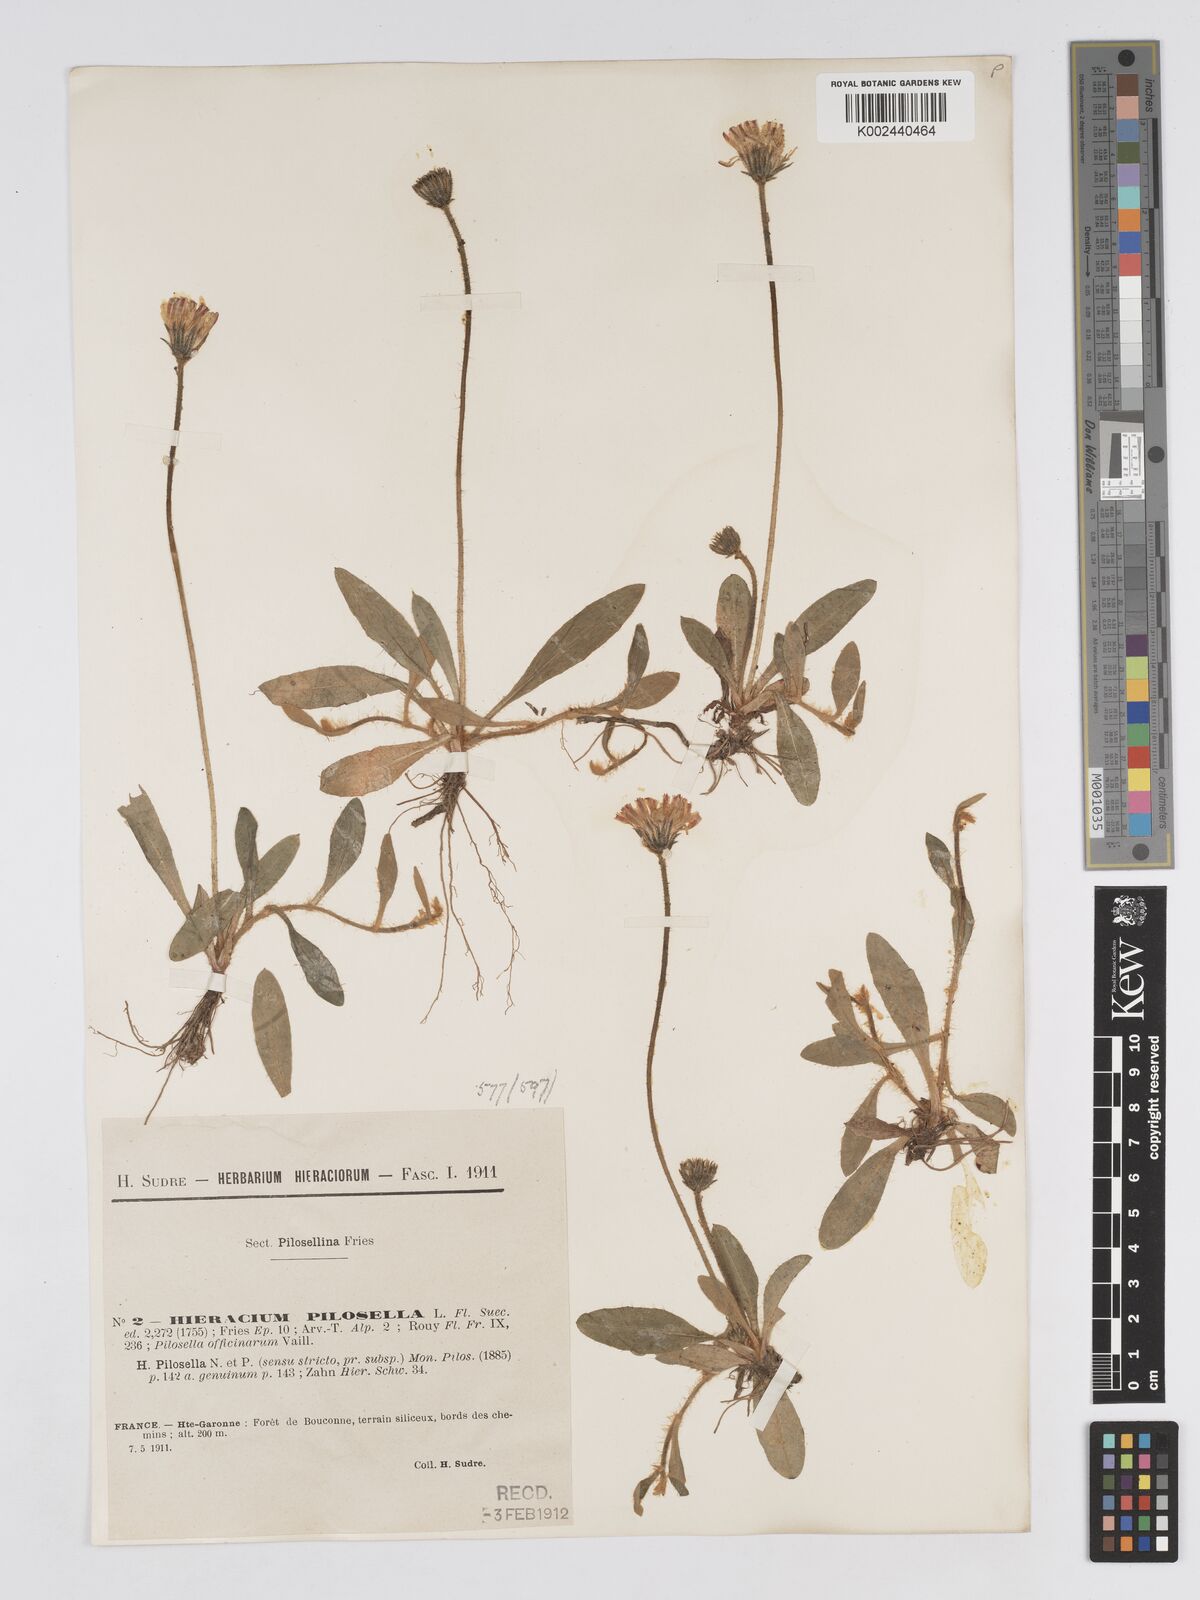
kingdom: Plantae
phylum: Tracheophyta
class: Magnoliopsida
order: Asterales
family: Asteraceae
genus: Pilosella
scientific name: Pilosella officinarum
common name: Mouse-ear hawkweed
